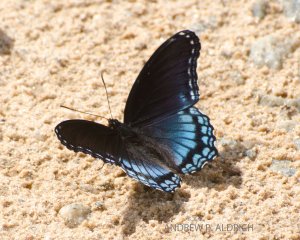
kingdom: Animalia
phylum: Arthropoda
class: Insecta
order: Lepidoptera
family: Nymphalidae
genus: Limenitis
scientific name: Limenitis astyanax
